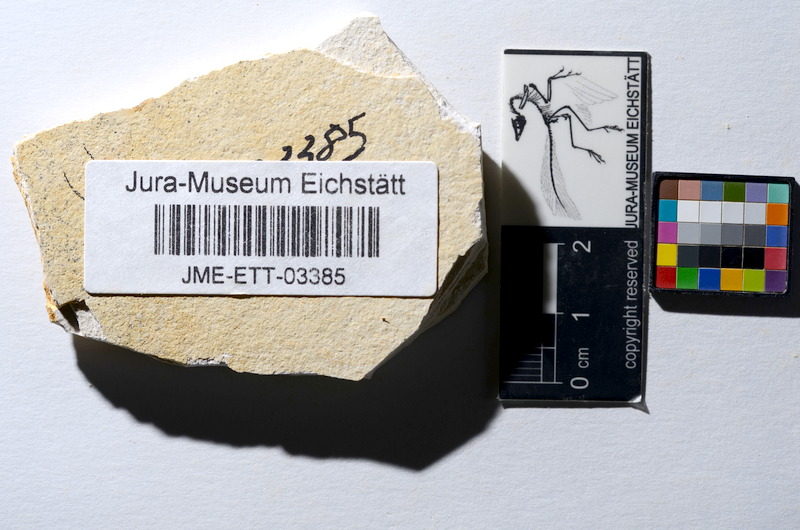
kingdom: Animalia
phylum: Chordata
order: Salmoniformes
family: Orthogonikleithridae
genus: Orthogonikleithrus
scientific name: Orthogonikleithrus hoelli
